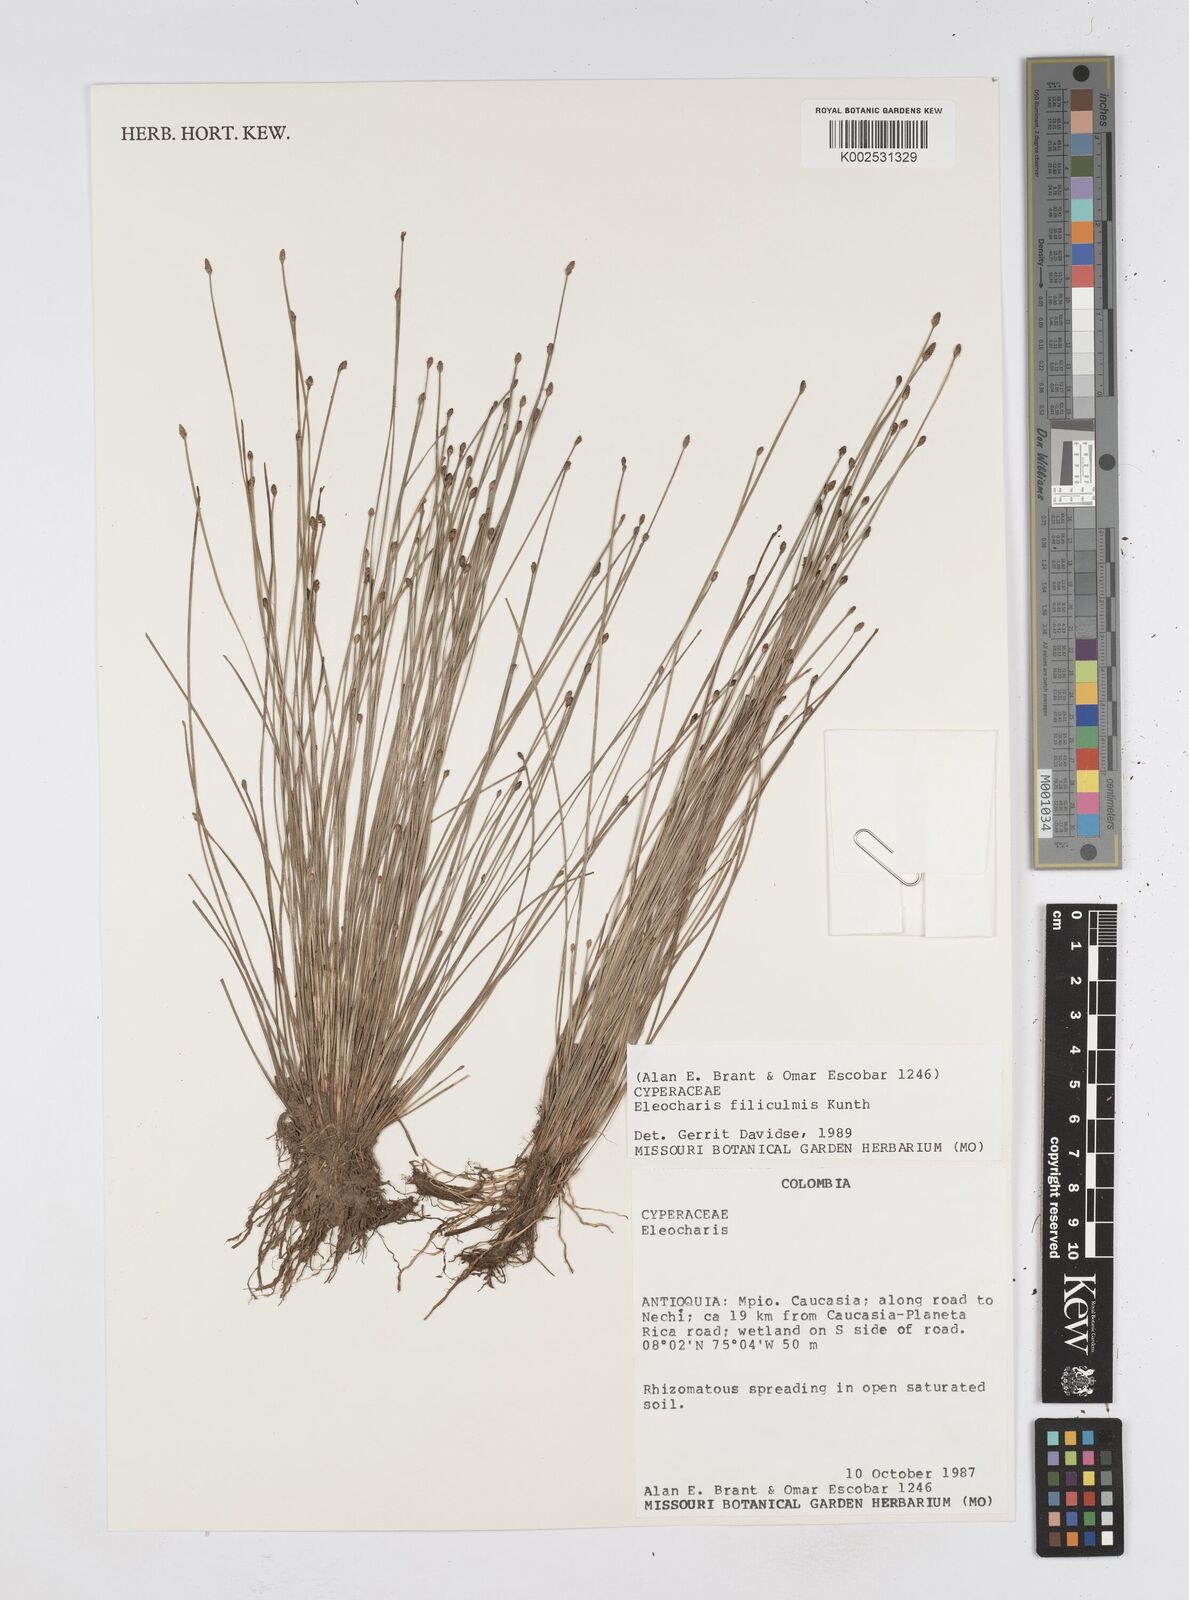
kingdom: Plantae
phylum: Tracheophyta
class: Liliopsida
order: Poales
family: Cyperaceae
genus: Eleocharis
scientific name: Eleocharis filiculmis
